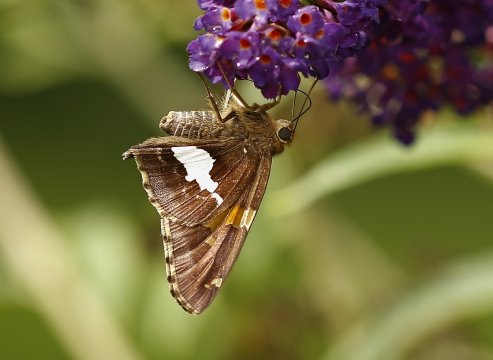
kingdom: Animalia
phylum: Arthropoda
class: Insecta
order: Lepidoptera
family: Hesperiidae
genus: Epargyreus
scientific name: Epargyreus clarus
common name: Silver-spotted Skipper
